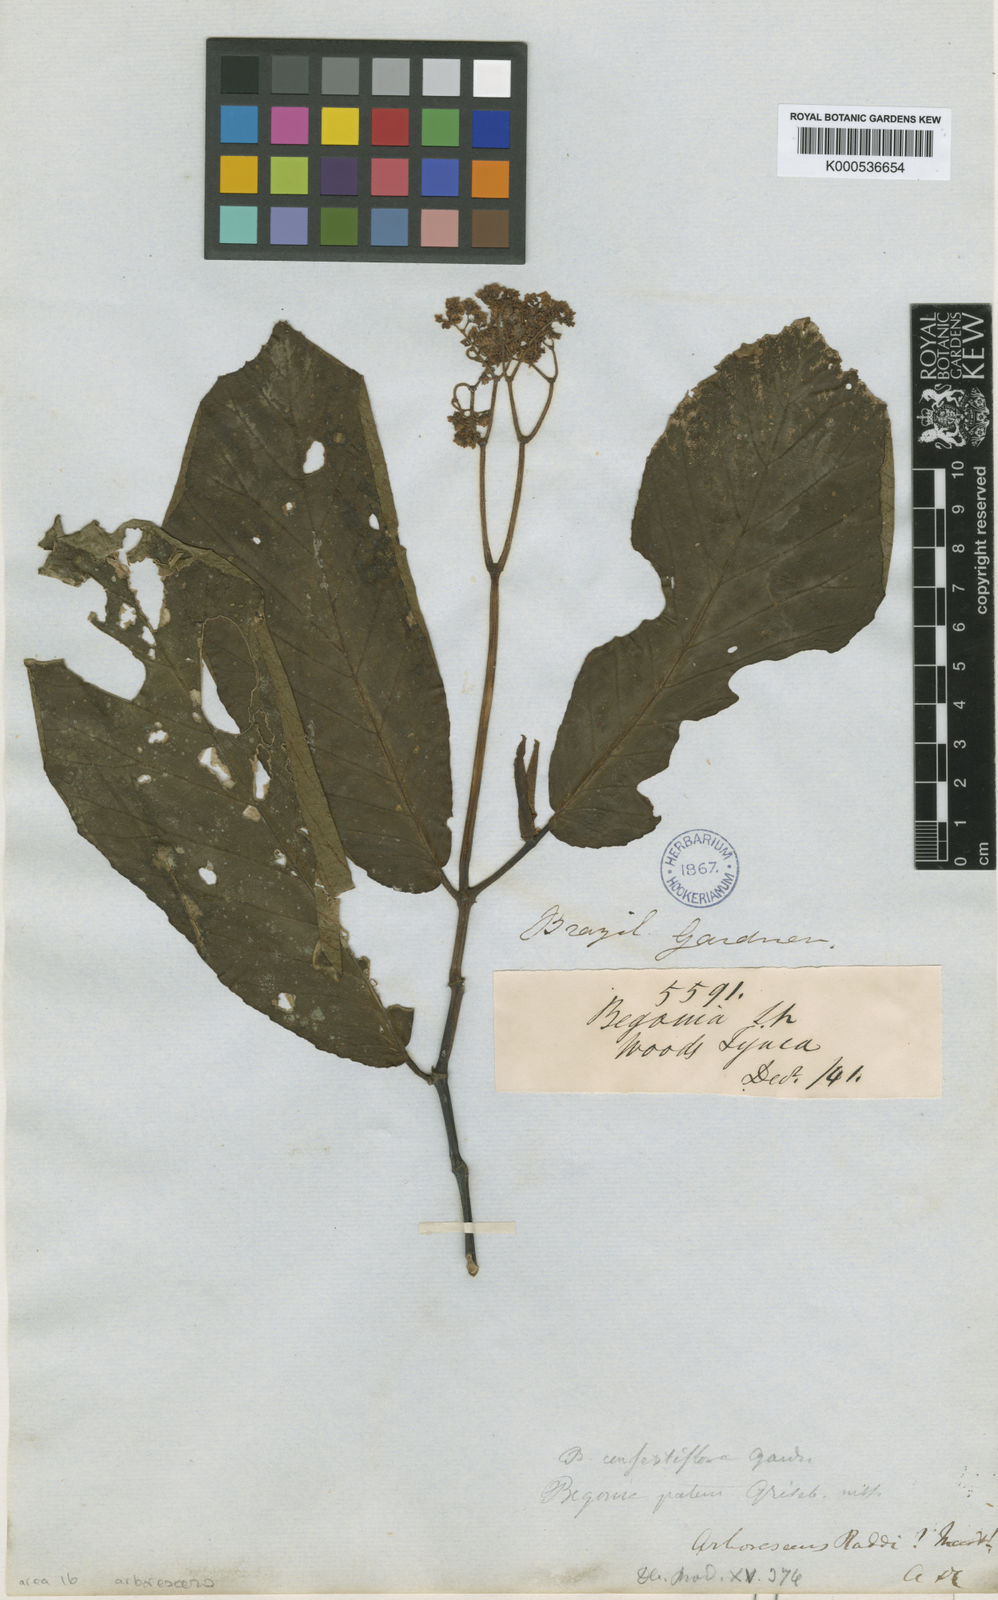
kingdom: Plantae
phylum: Tracheophyta
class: Magnoliopsida
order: Cucurbitales
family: Begoniaceae
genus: Begonia
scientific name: Begonia arborescens
